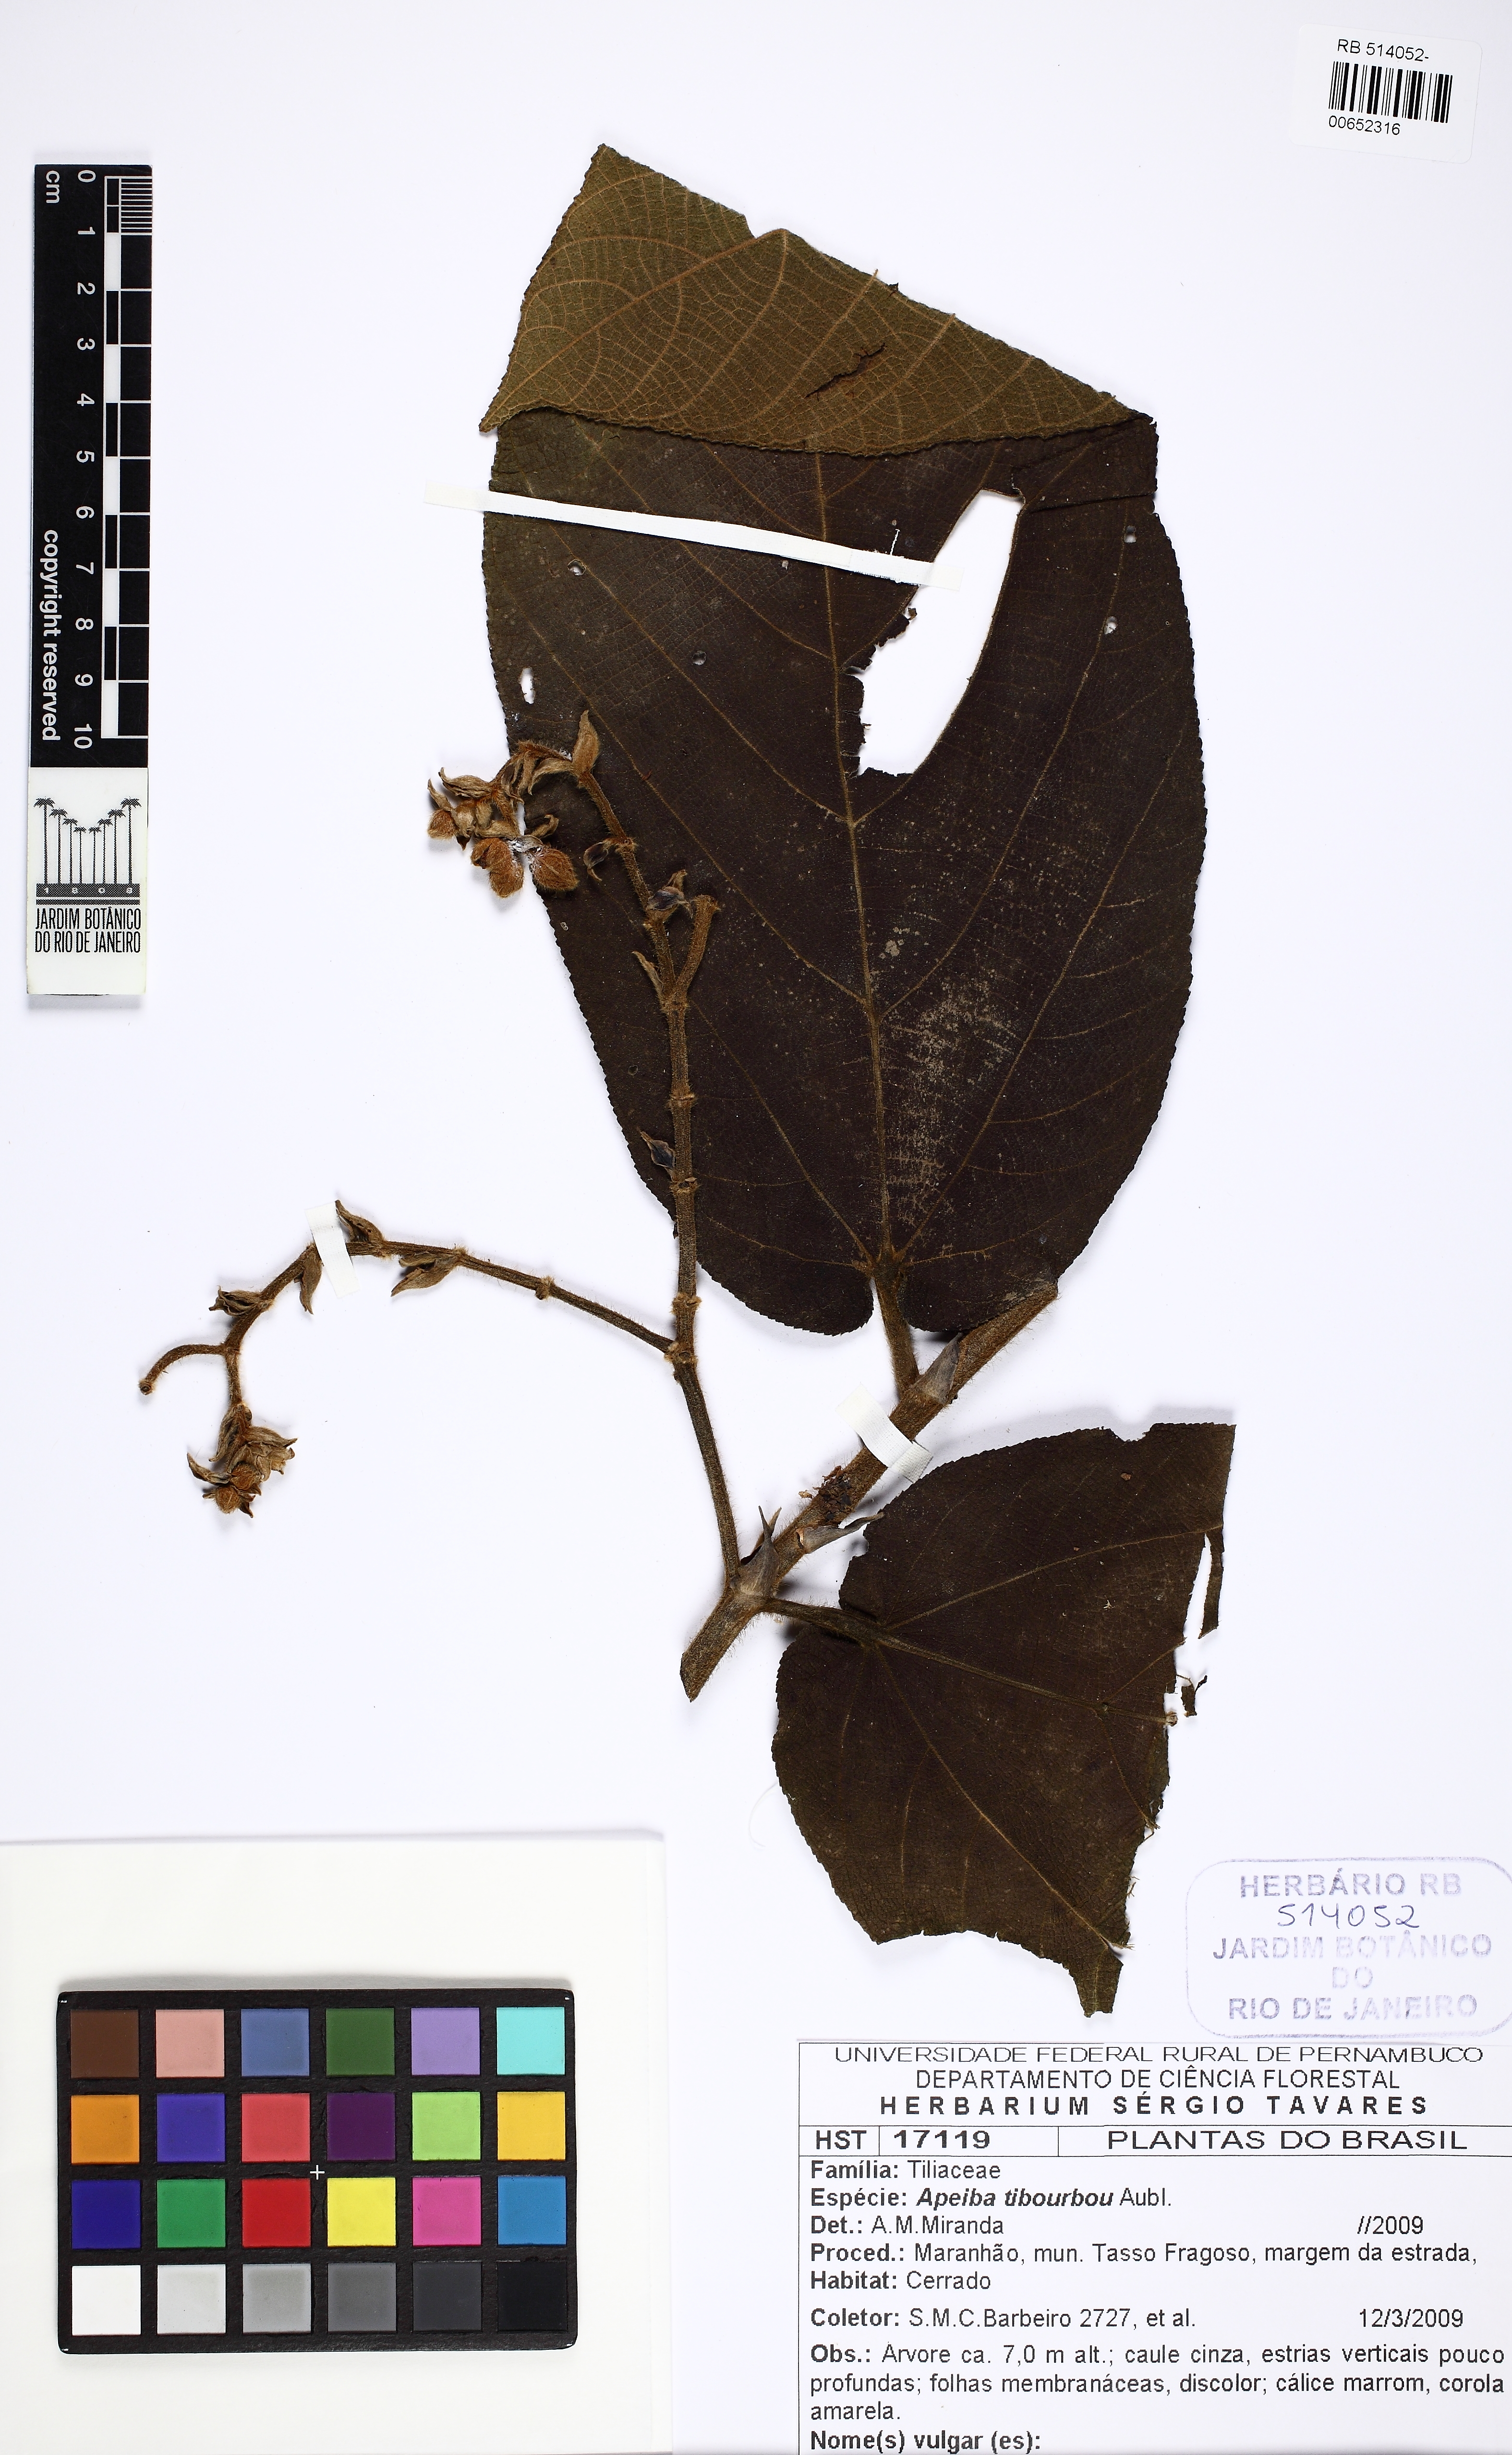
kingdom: Plantae
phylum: Tracheophyta
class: Magnoliopsida
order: Malvales
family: Malvaceae
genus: Apeiba
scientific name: Apeiba tibourbou
